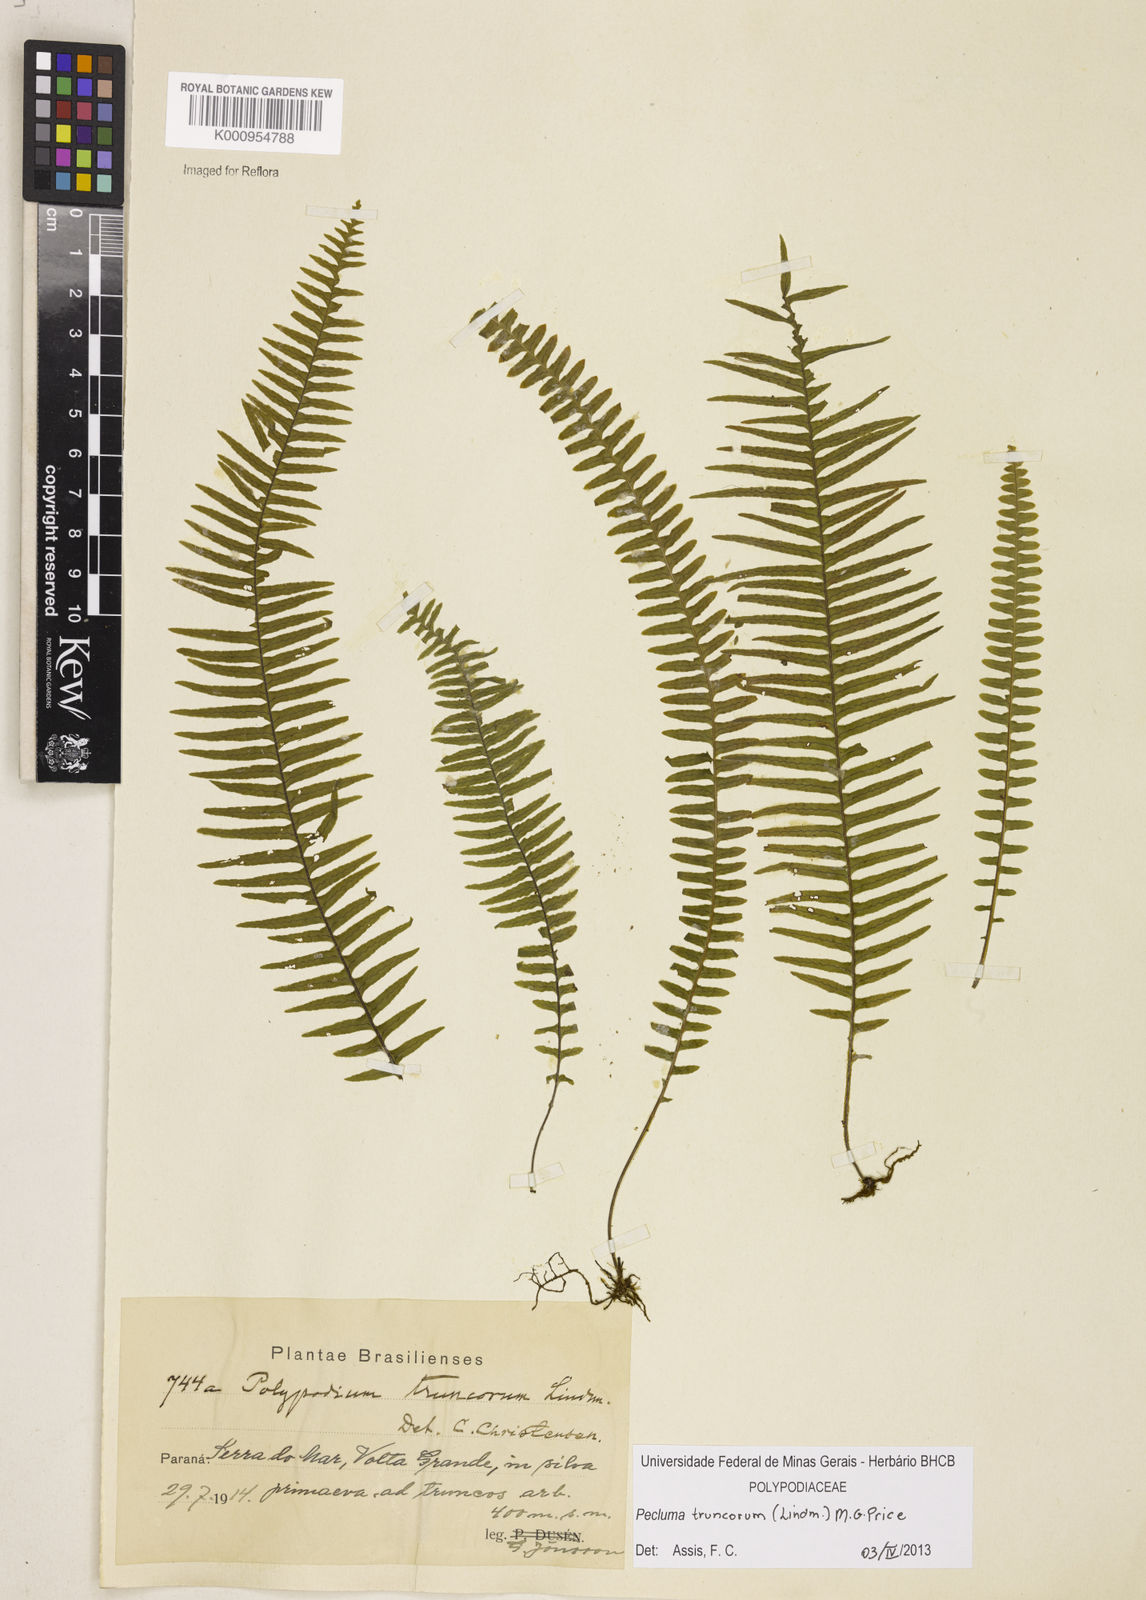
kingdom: Plantae
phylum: Tracheophyta
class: Polypodiopsida
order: Polypodiales
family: Polypodiaceae
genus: Pecluma
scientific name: Pecluma truncorum
